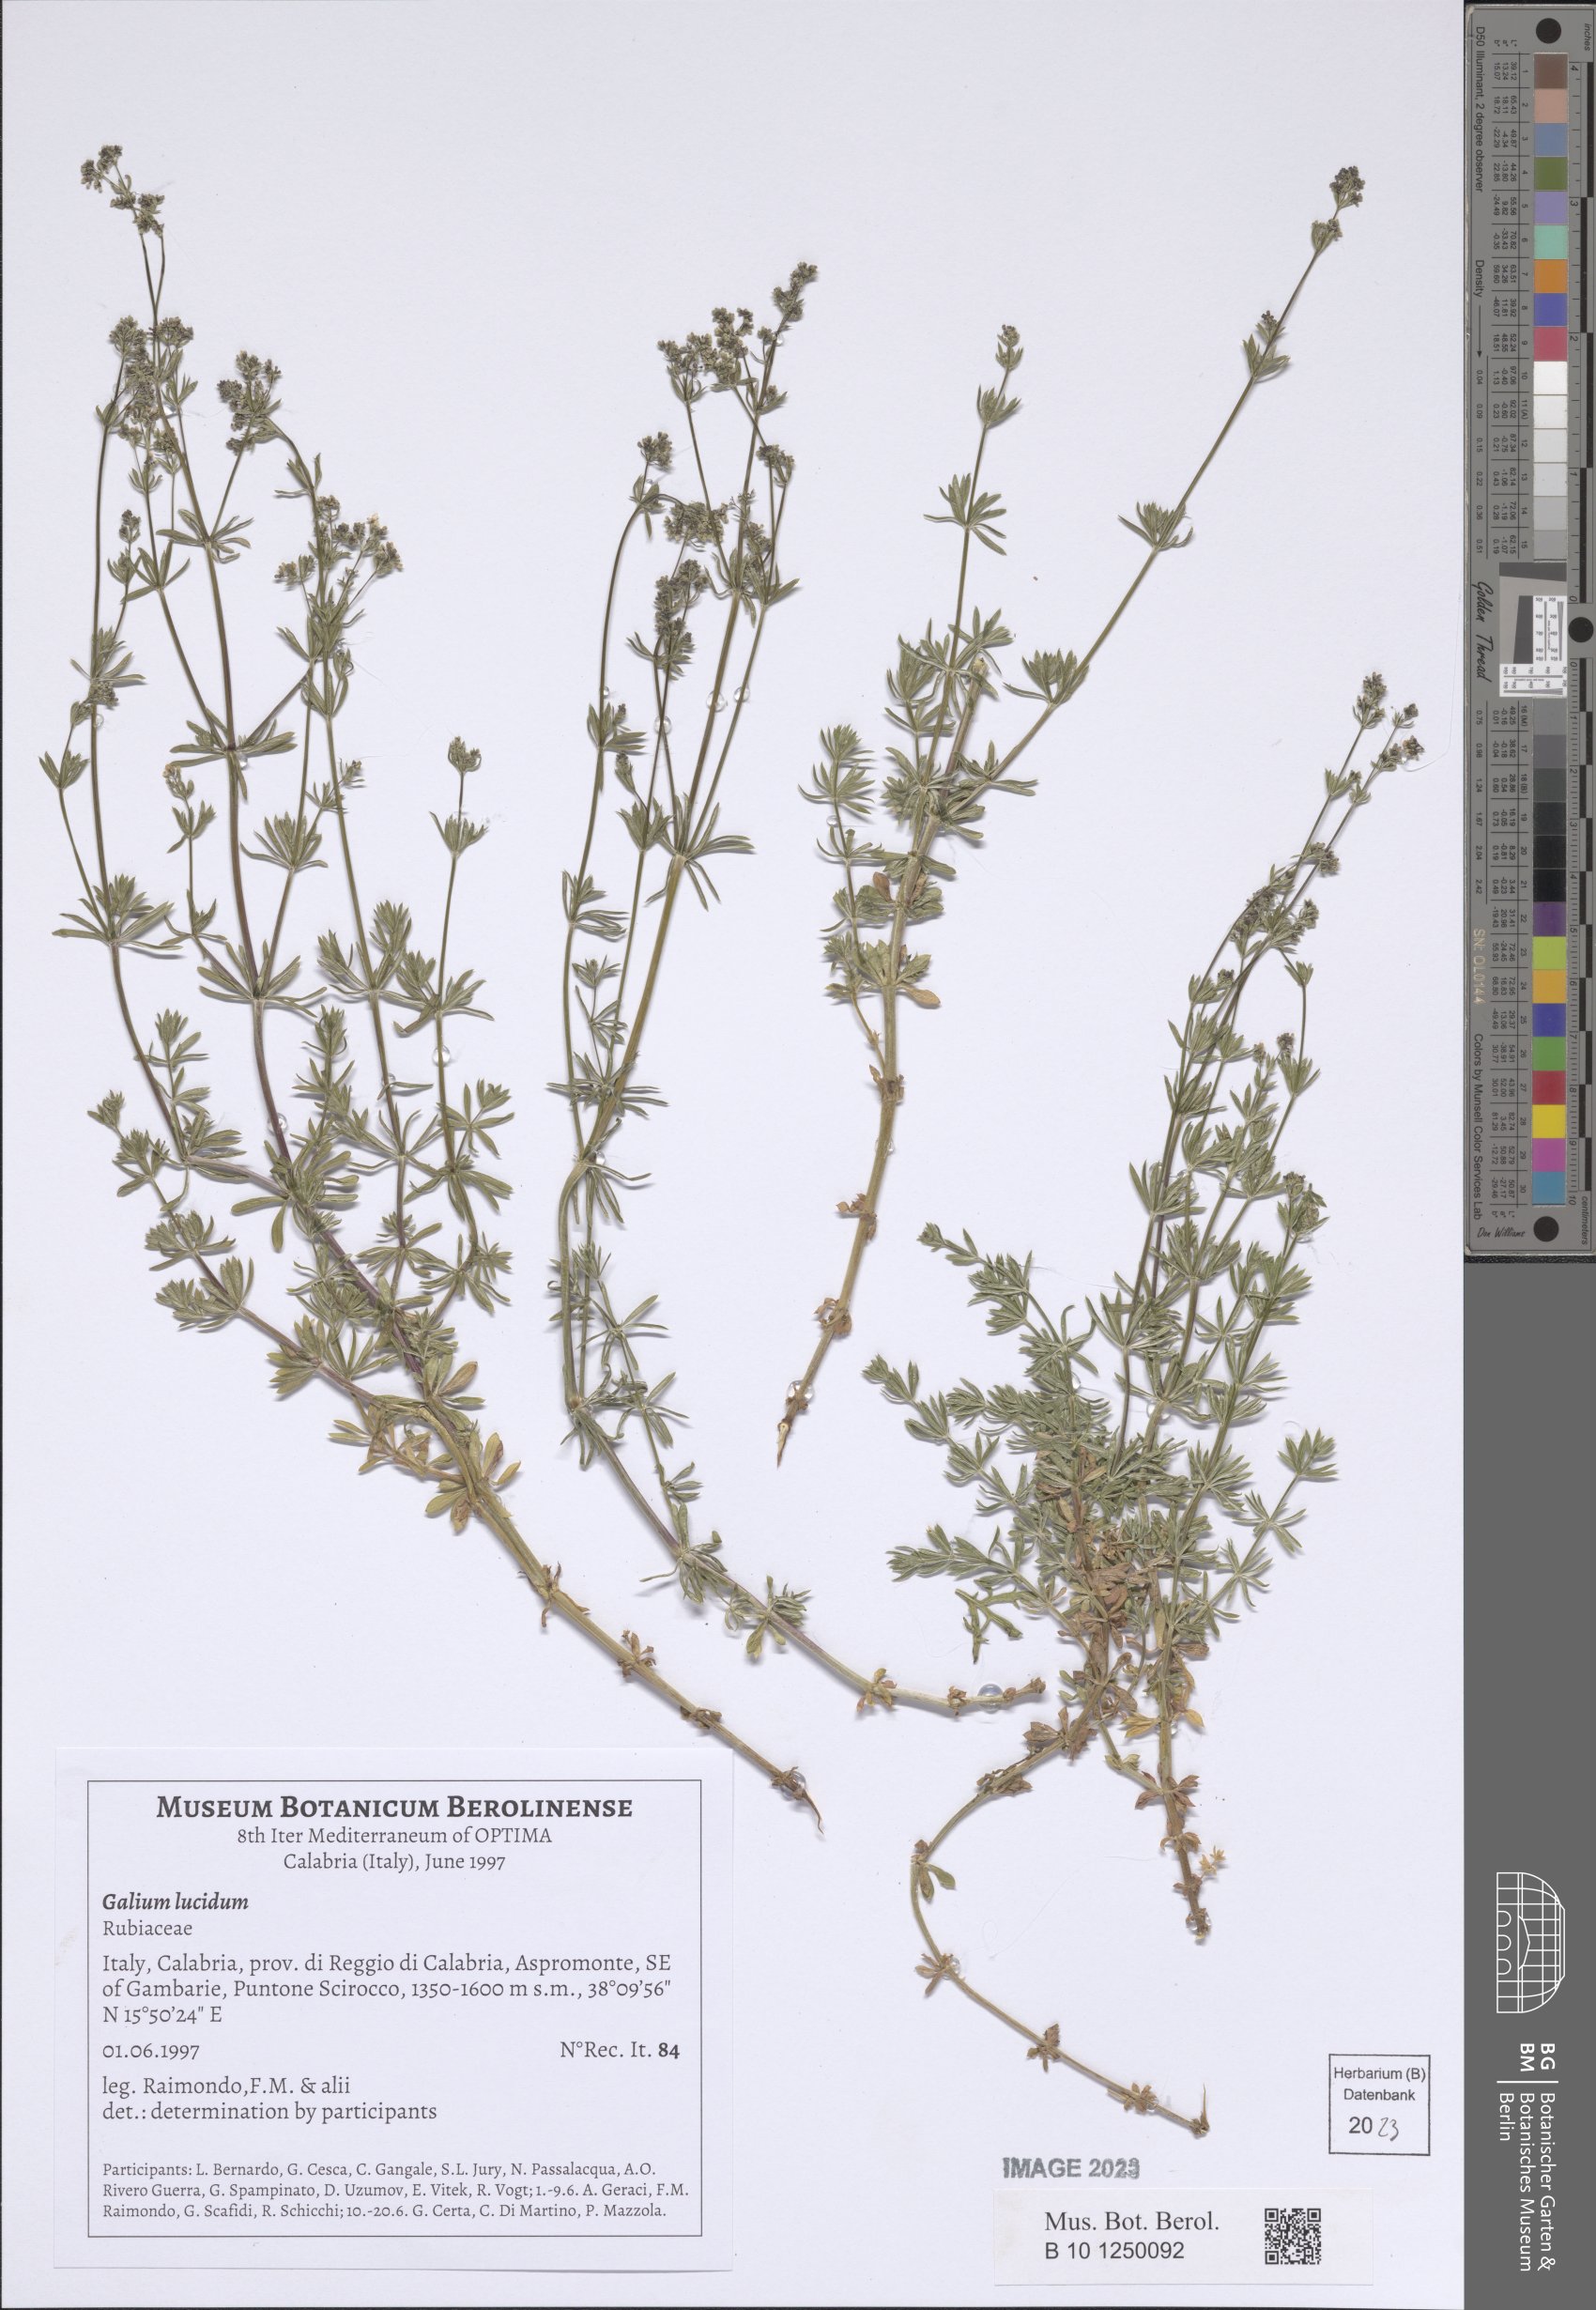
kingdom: Plantae
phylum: Tracheophyta
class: Magnoliopsida
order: Gentianales
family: Rubiaceae
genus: Galium
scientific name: Galium lucidum
